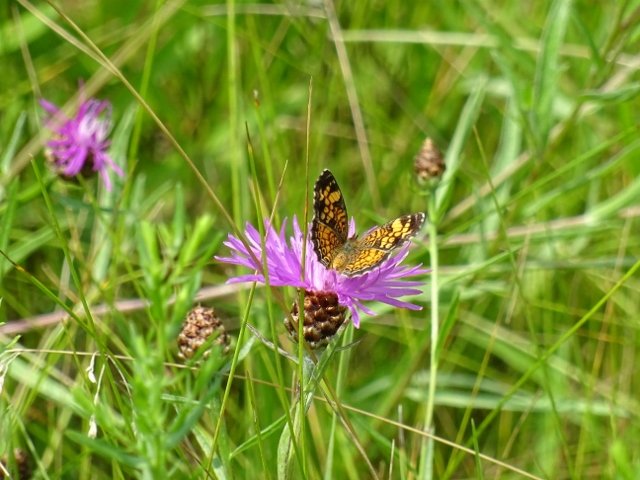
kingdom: Animalia
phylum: Arthropoda
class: Insecta
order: Lepidoptera
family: Nymphalidae
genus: Phyciodes
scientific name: Phyciodes tharos
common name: Pearl Crescent
